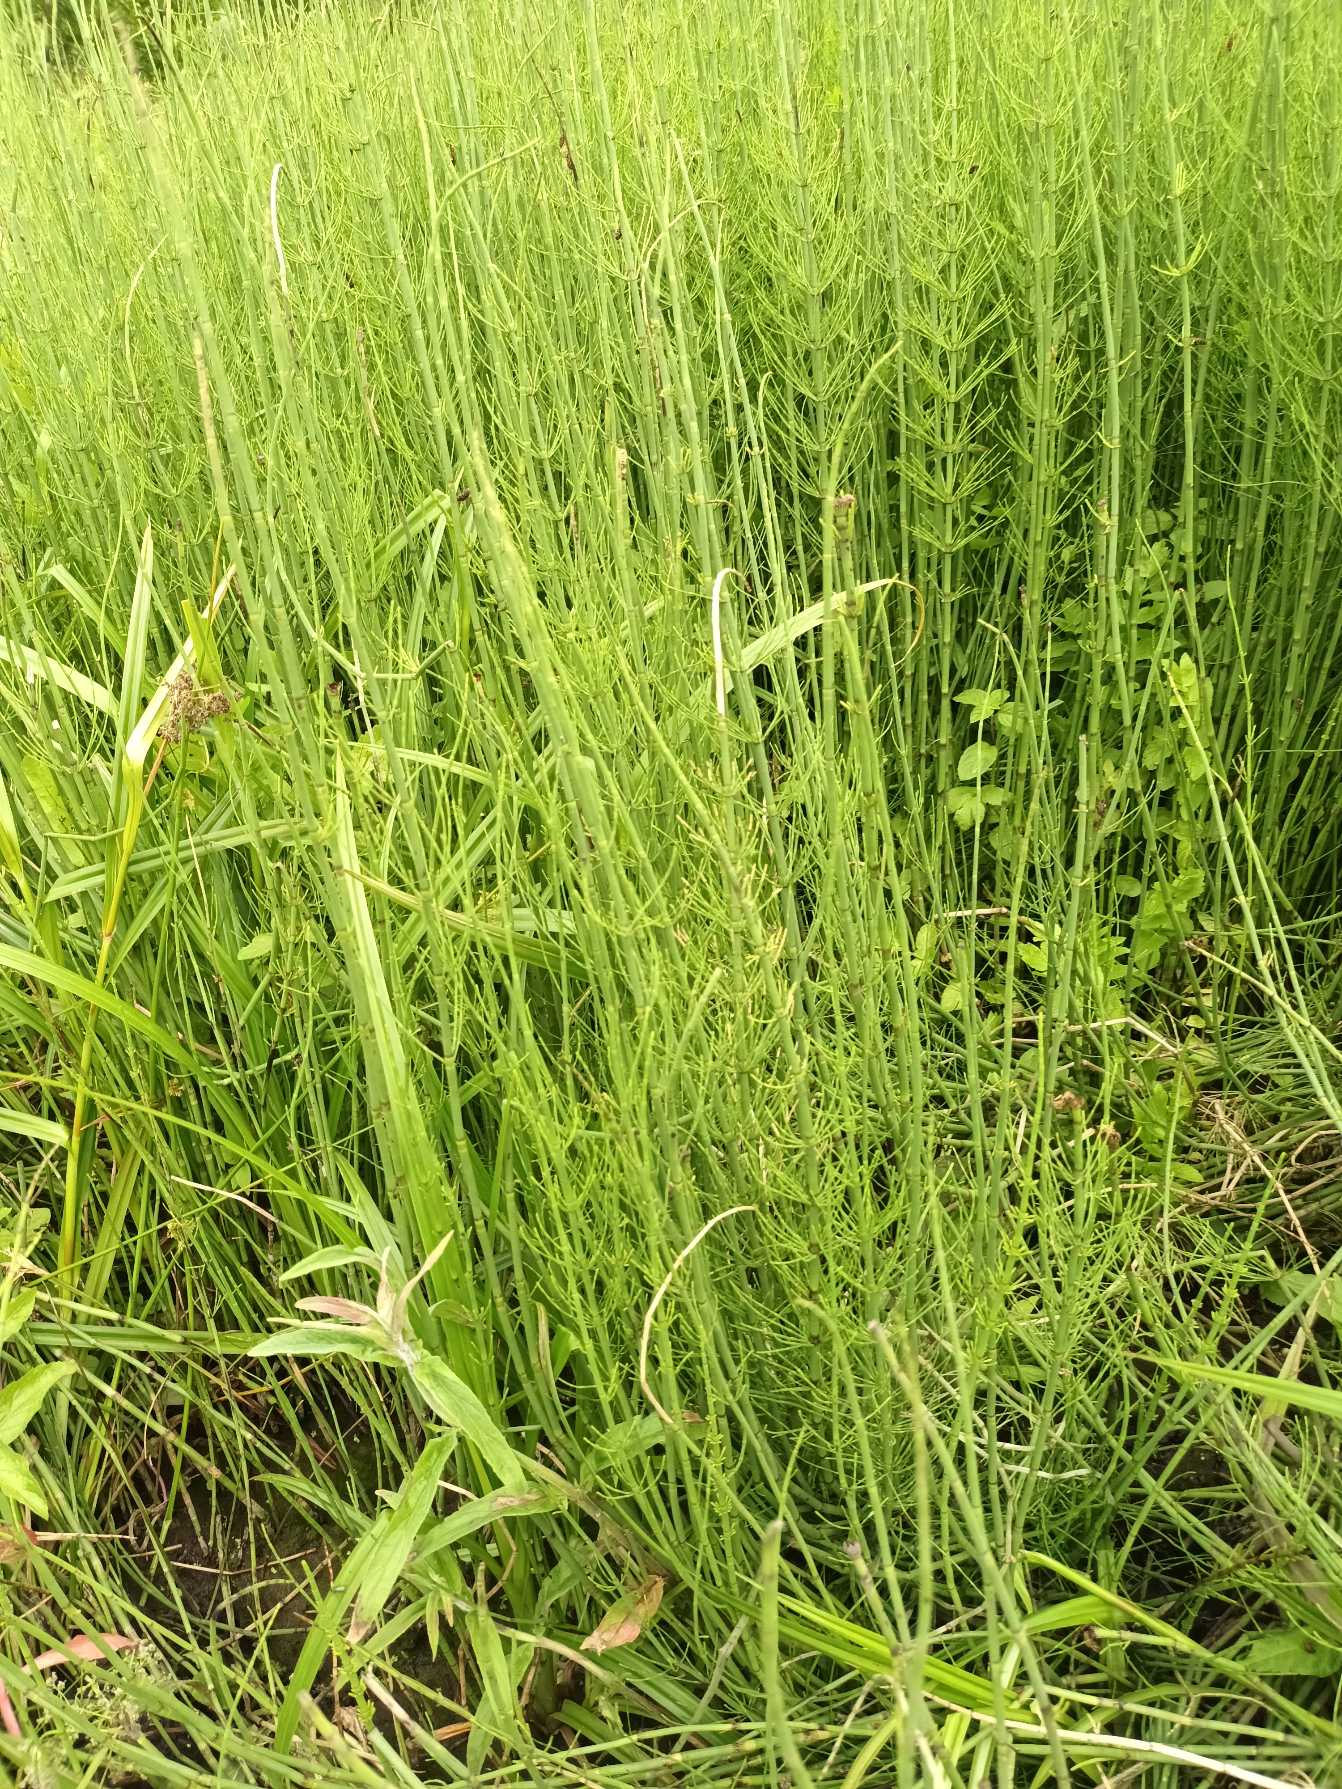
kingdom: Plantae
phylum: Tracheophyta
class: Polypodiopsida
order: Equisetales
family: Equisetaceae
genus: Equisetum
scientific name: Equisetum fluviatile
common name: Dynd-padderok
